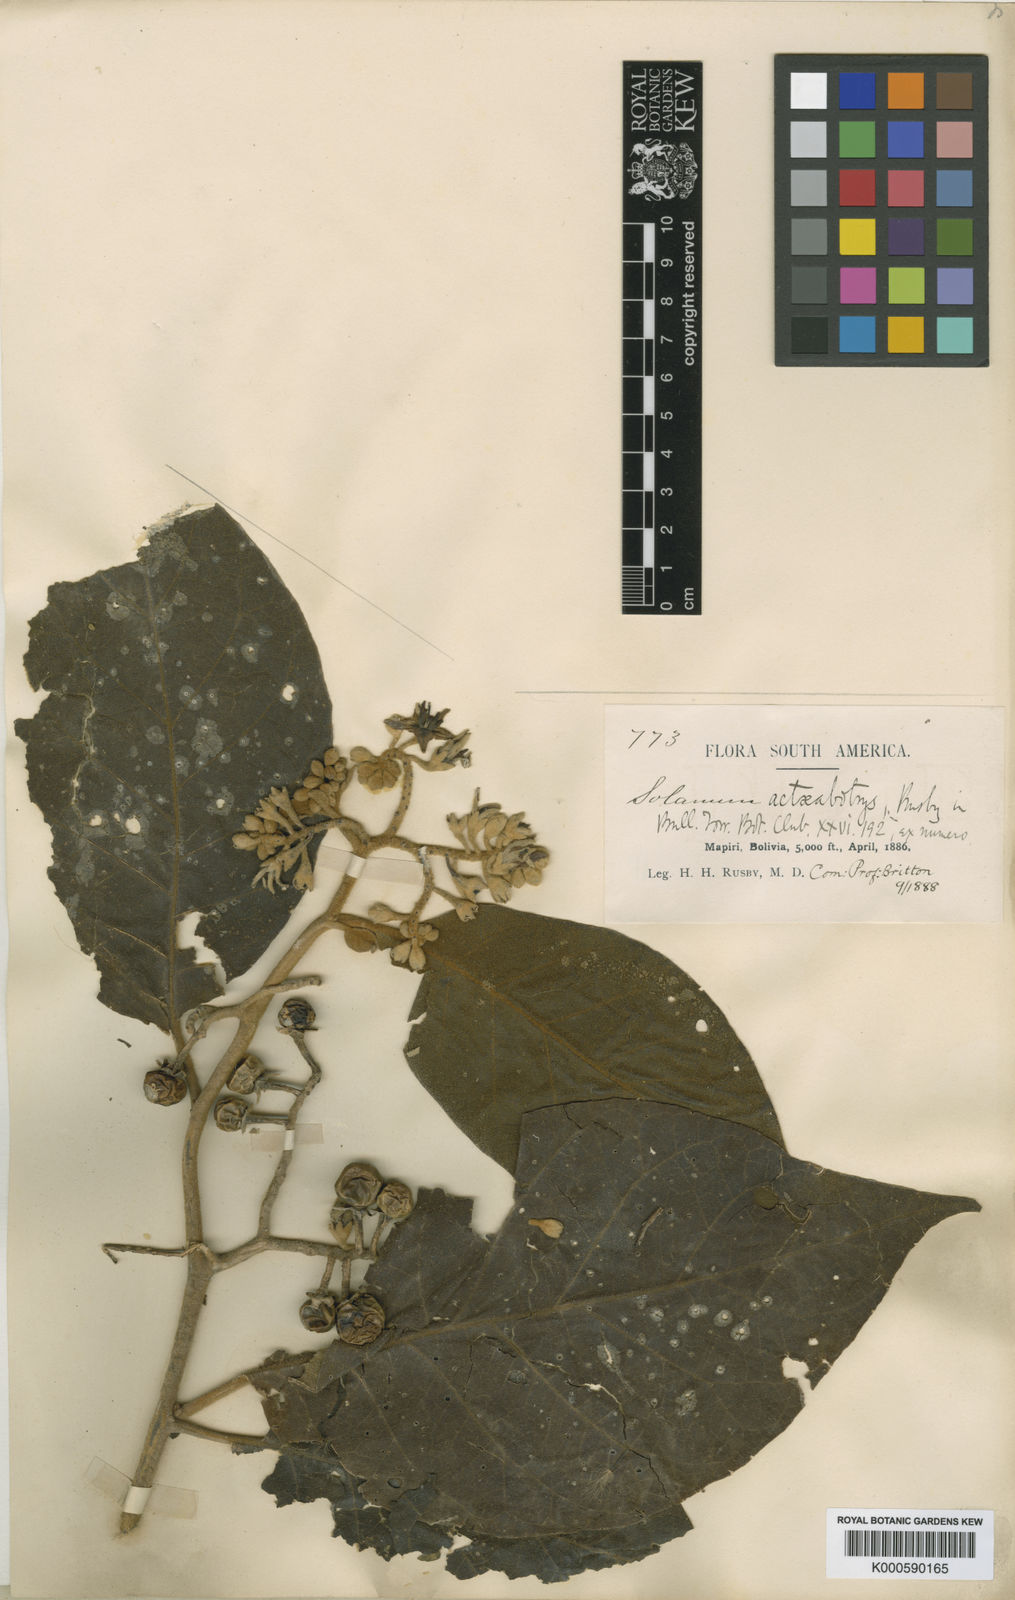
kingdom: Plantae
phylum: Tracheophyta
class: Magnoliopsida
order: Solanales
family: Solanaceae
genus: Solanum
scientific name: Solanum actaeabotrys
